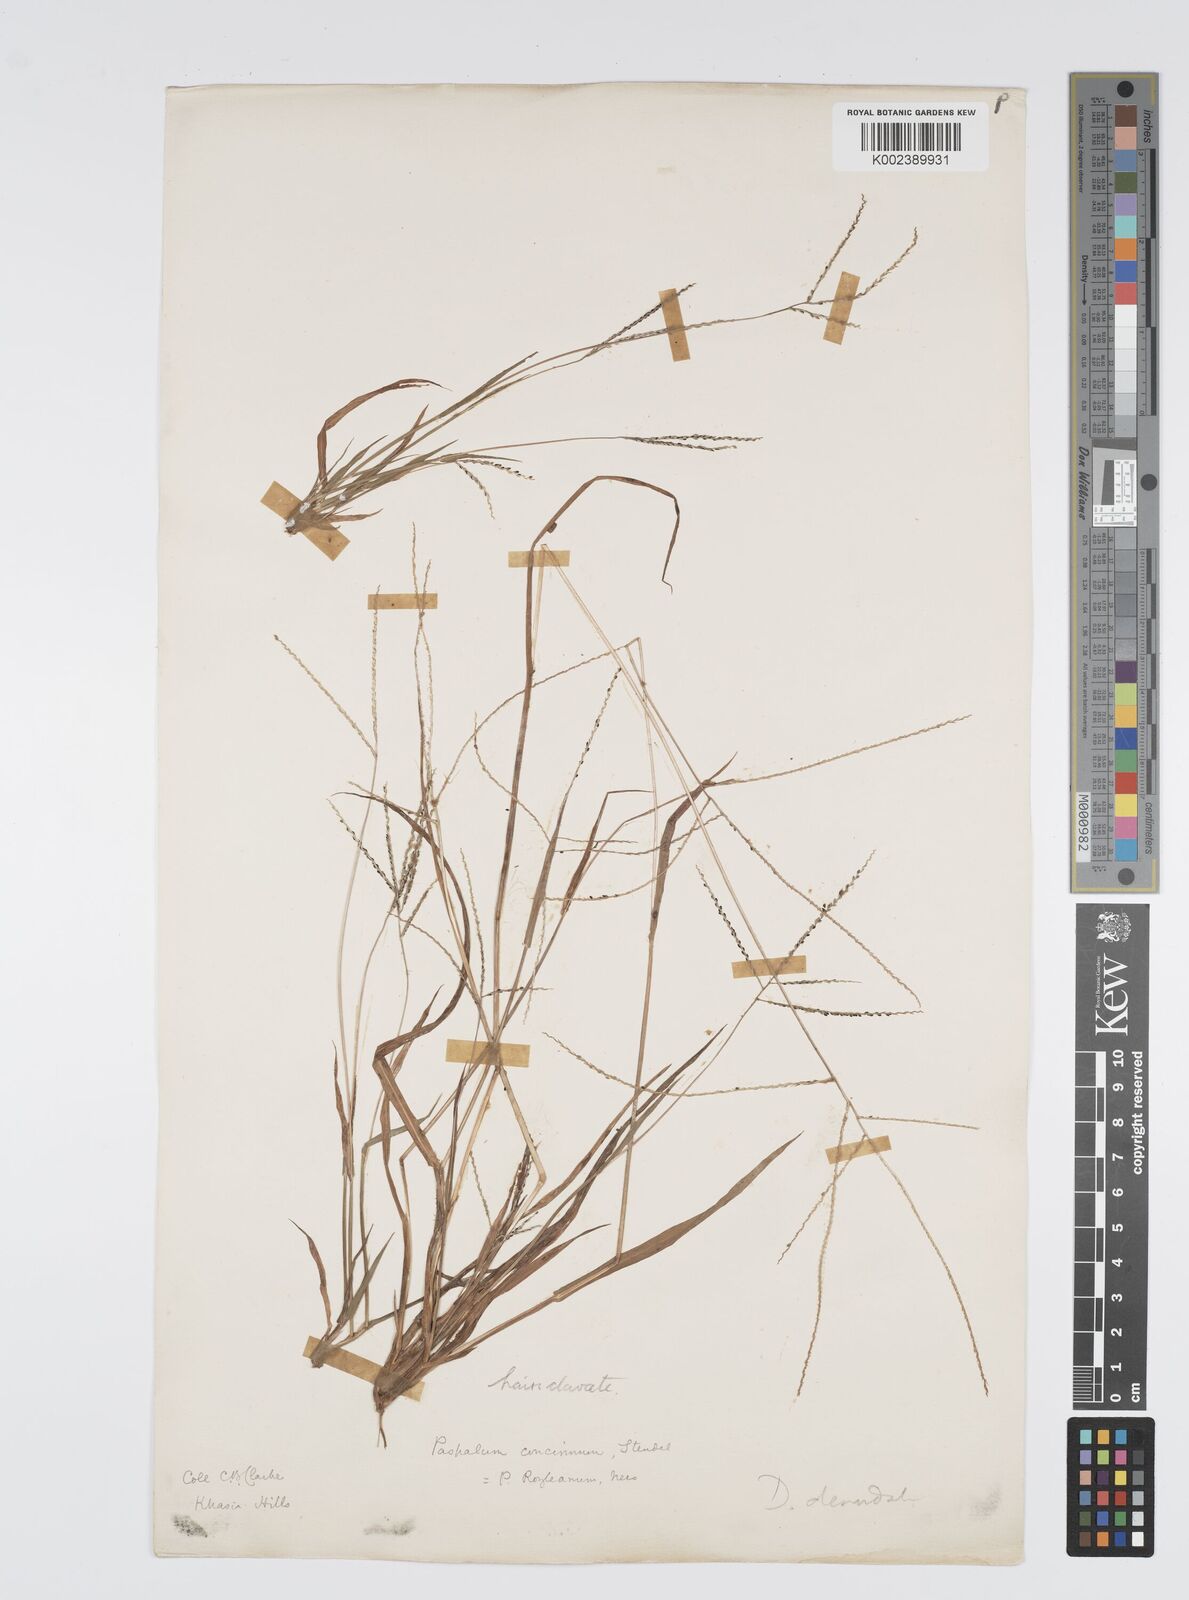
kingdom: Plantae
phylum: Tracheophyta
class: Liliopsida
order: Poales
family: Poaceae
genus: Digitaria
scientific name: Digitaria stricta
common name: Crabgrass
